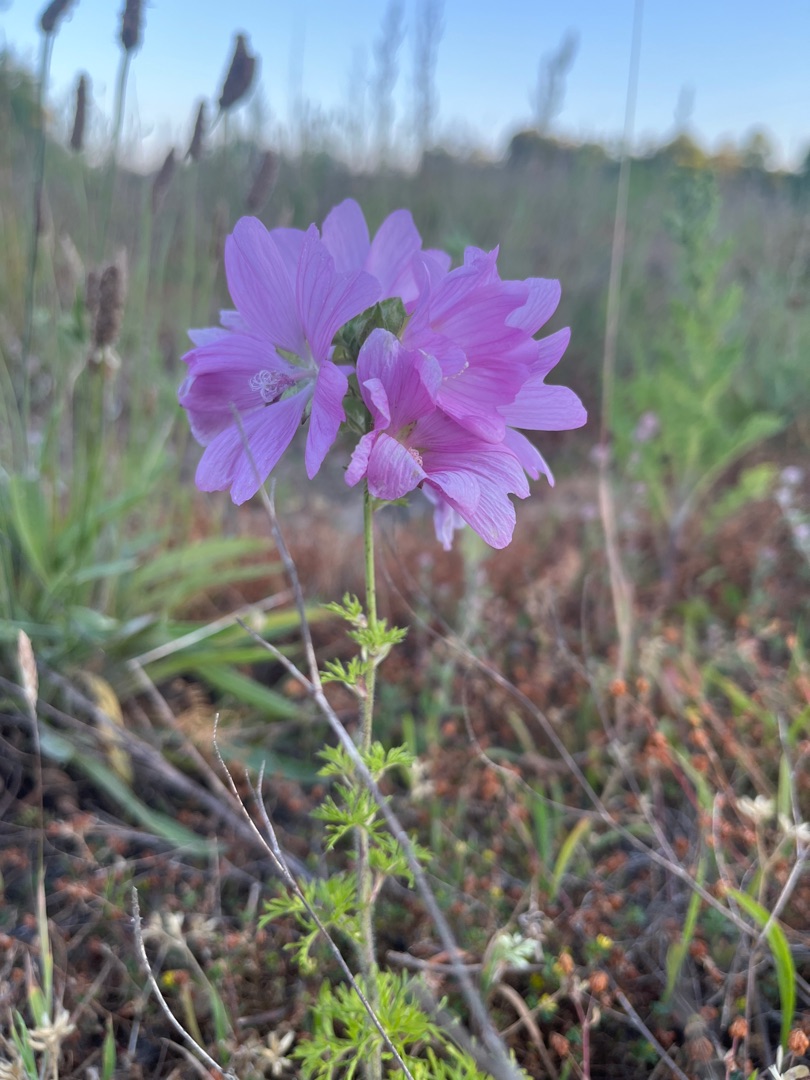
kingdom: Plantae
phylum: Tracheophyta
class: Magnoliopsida
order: Malvales
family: Malvaceae
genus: Malva
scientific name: Malva moschata
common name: Moskus-katost
